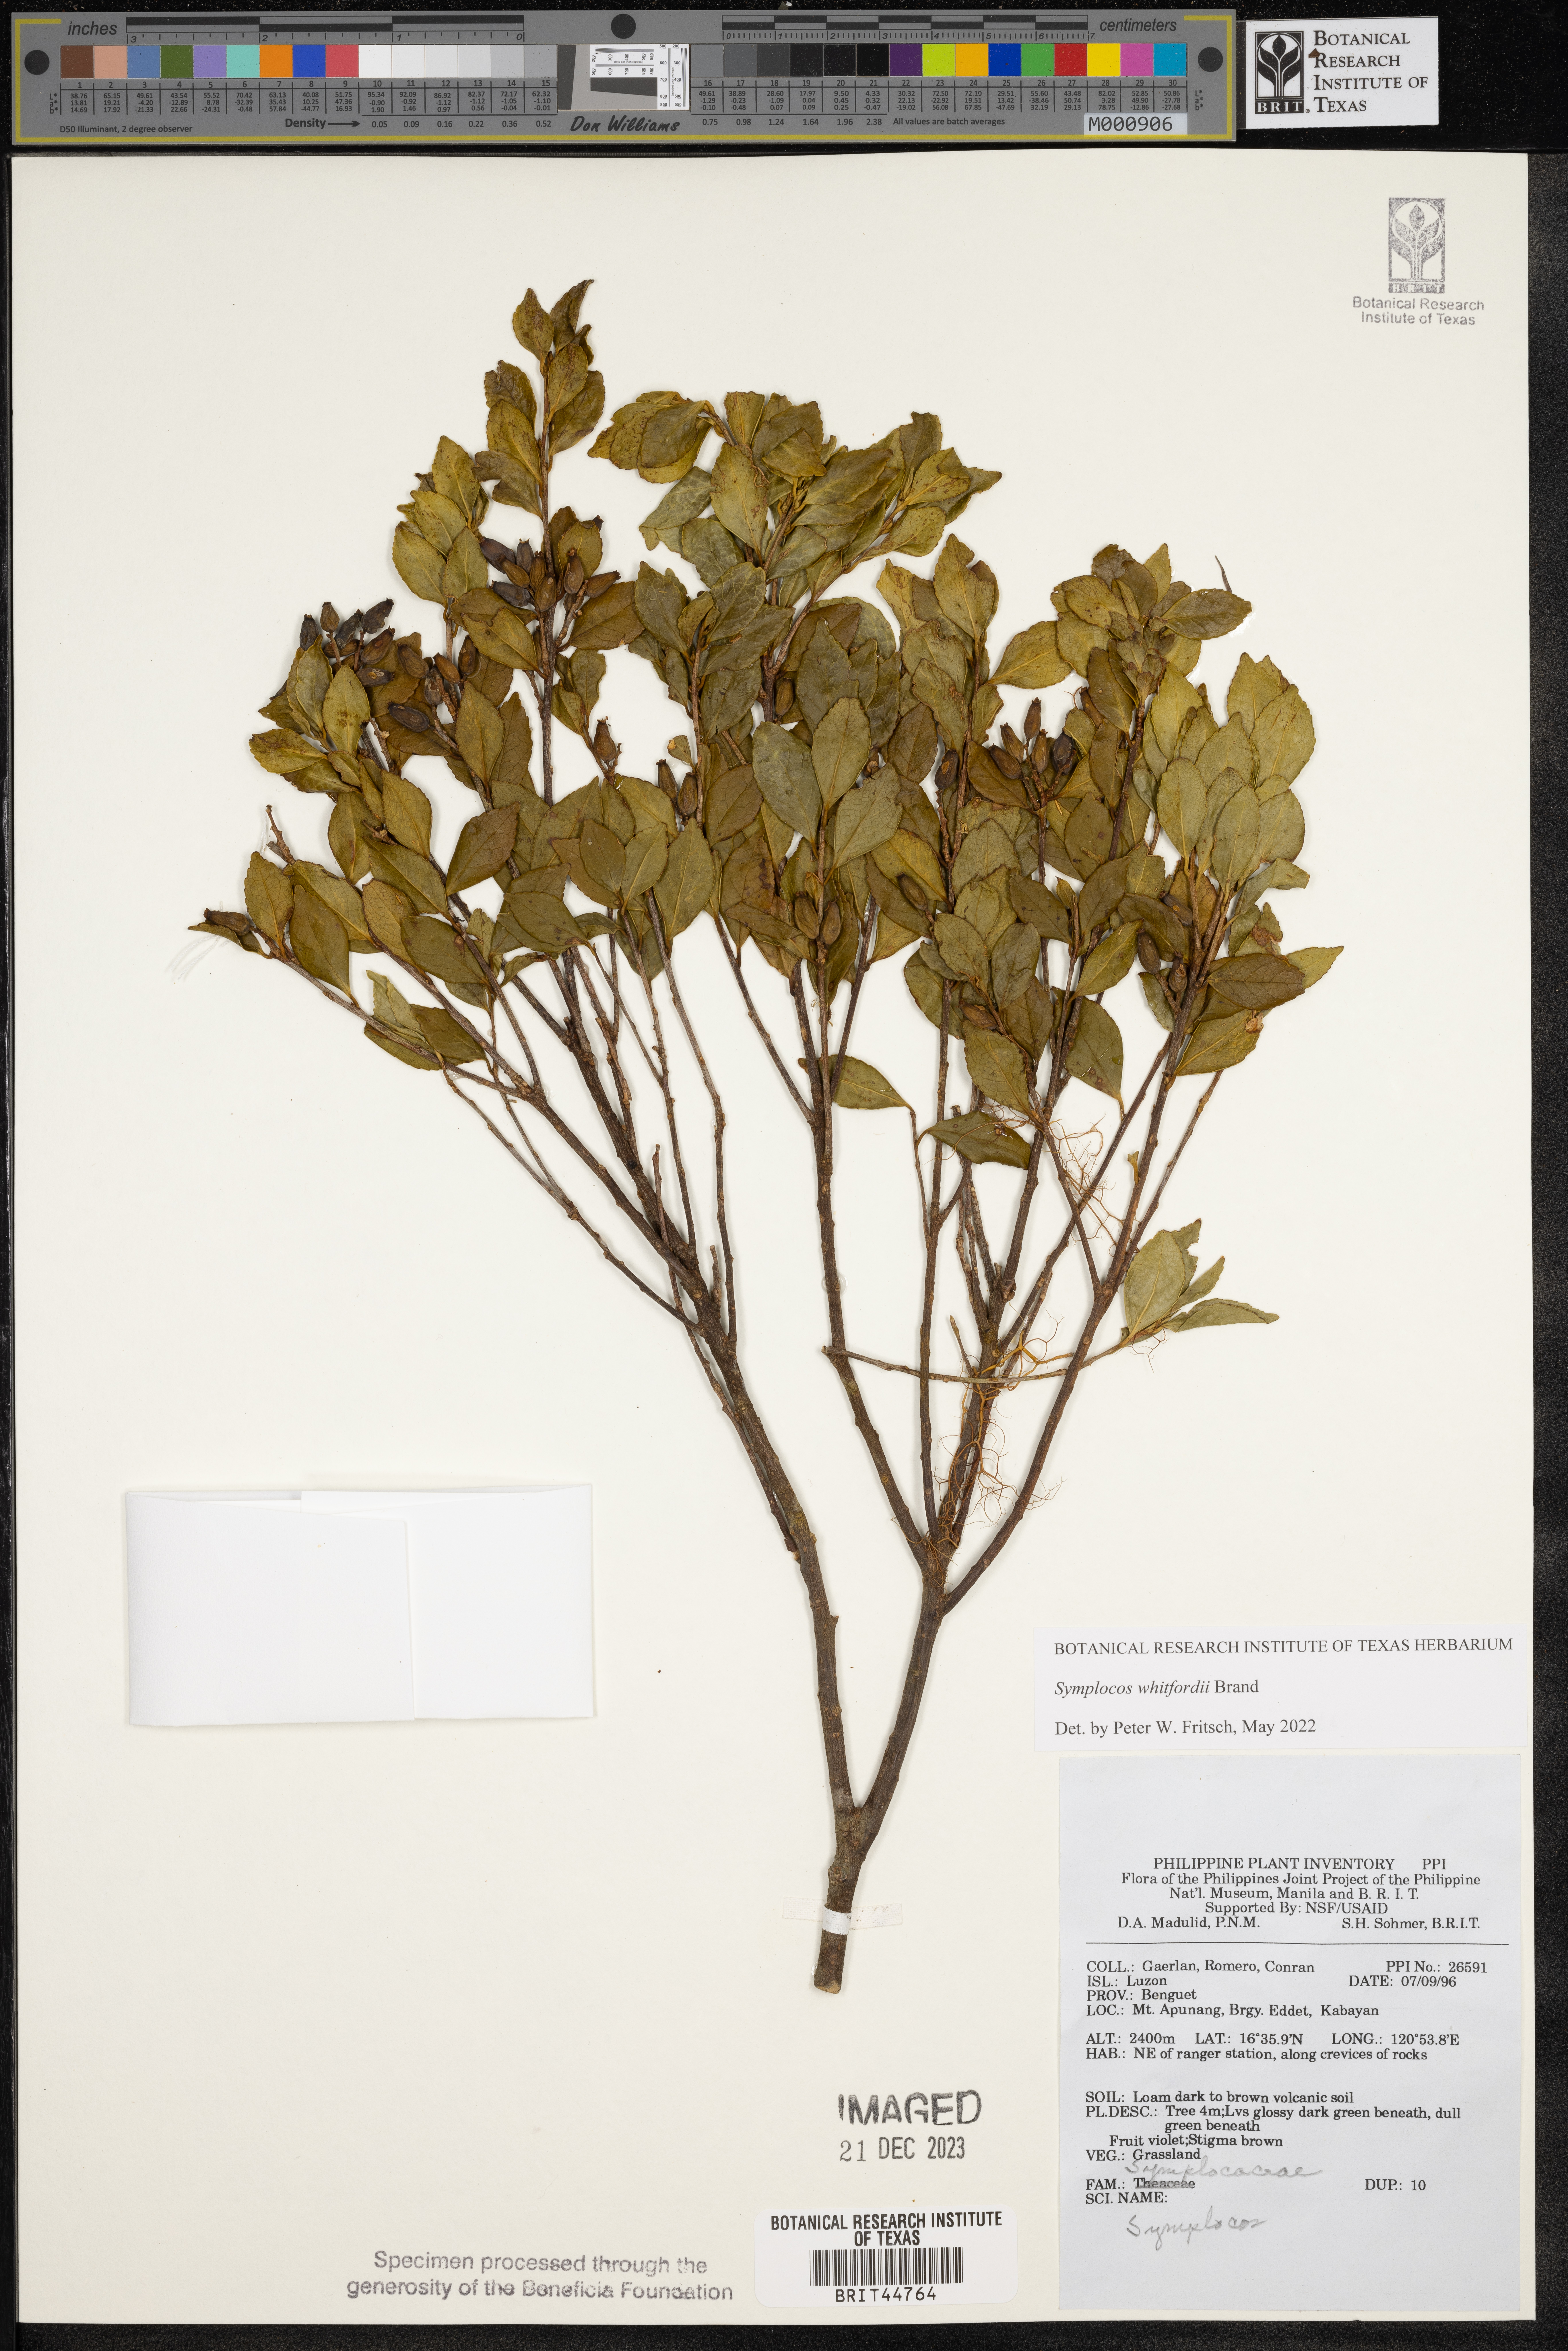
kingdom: Plantae
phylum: Tracheophyta
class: Magnoliopsida
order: Ericales
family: Symplocaceae
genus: Symplocos
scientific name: Symplocos
